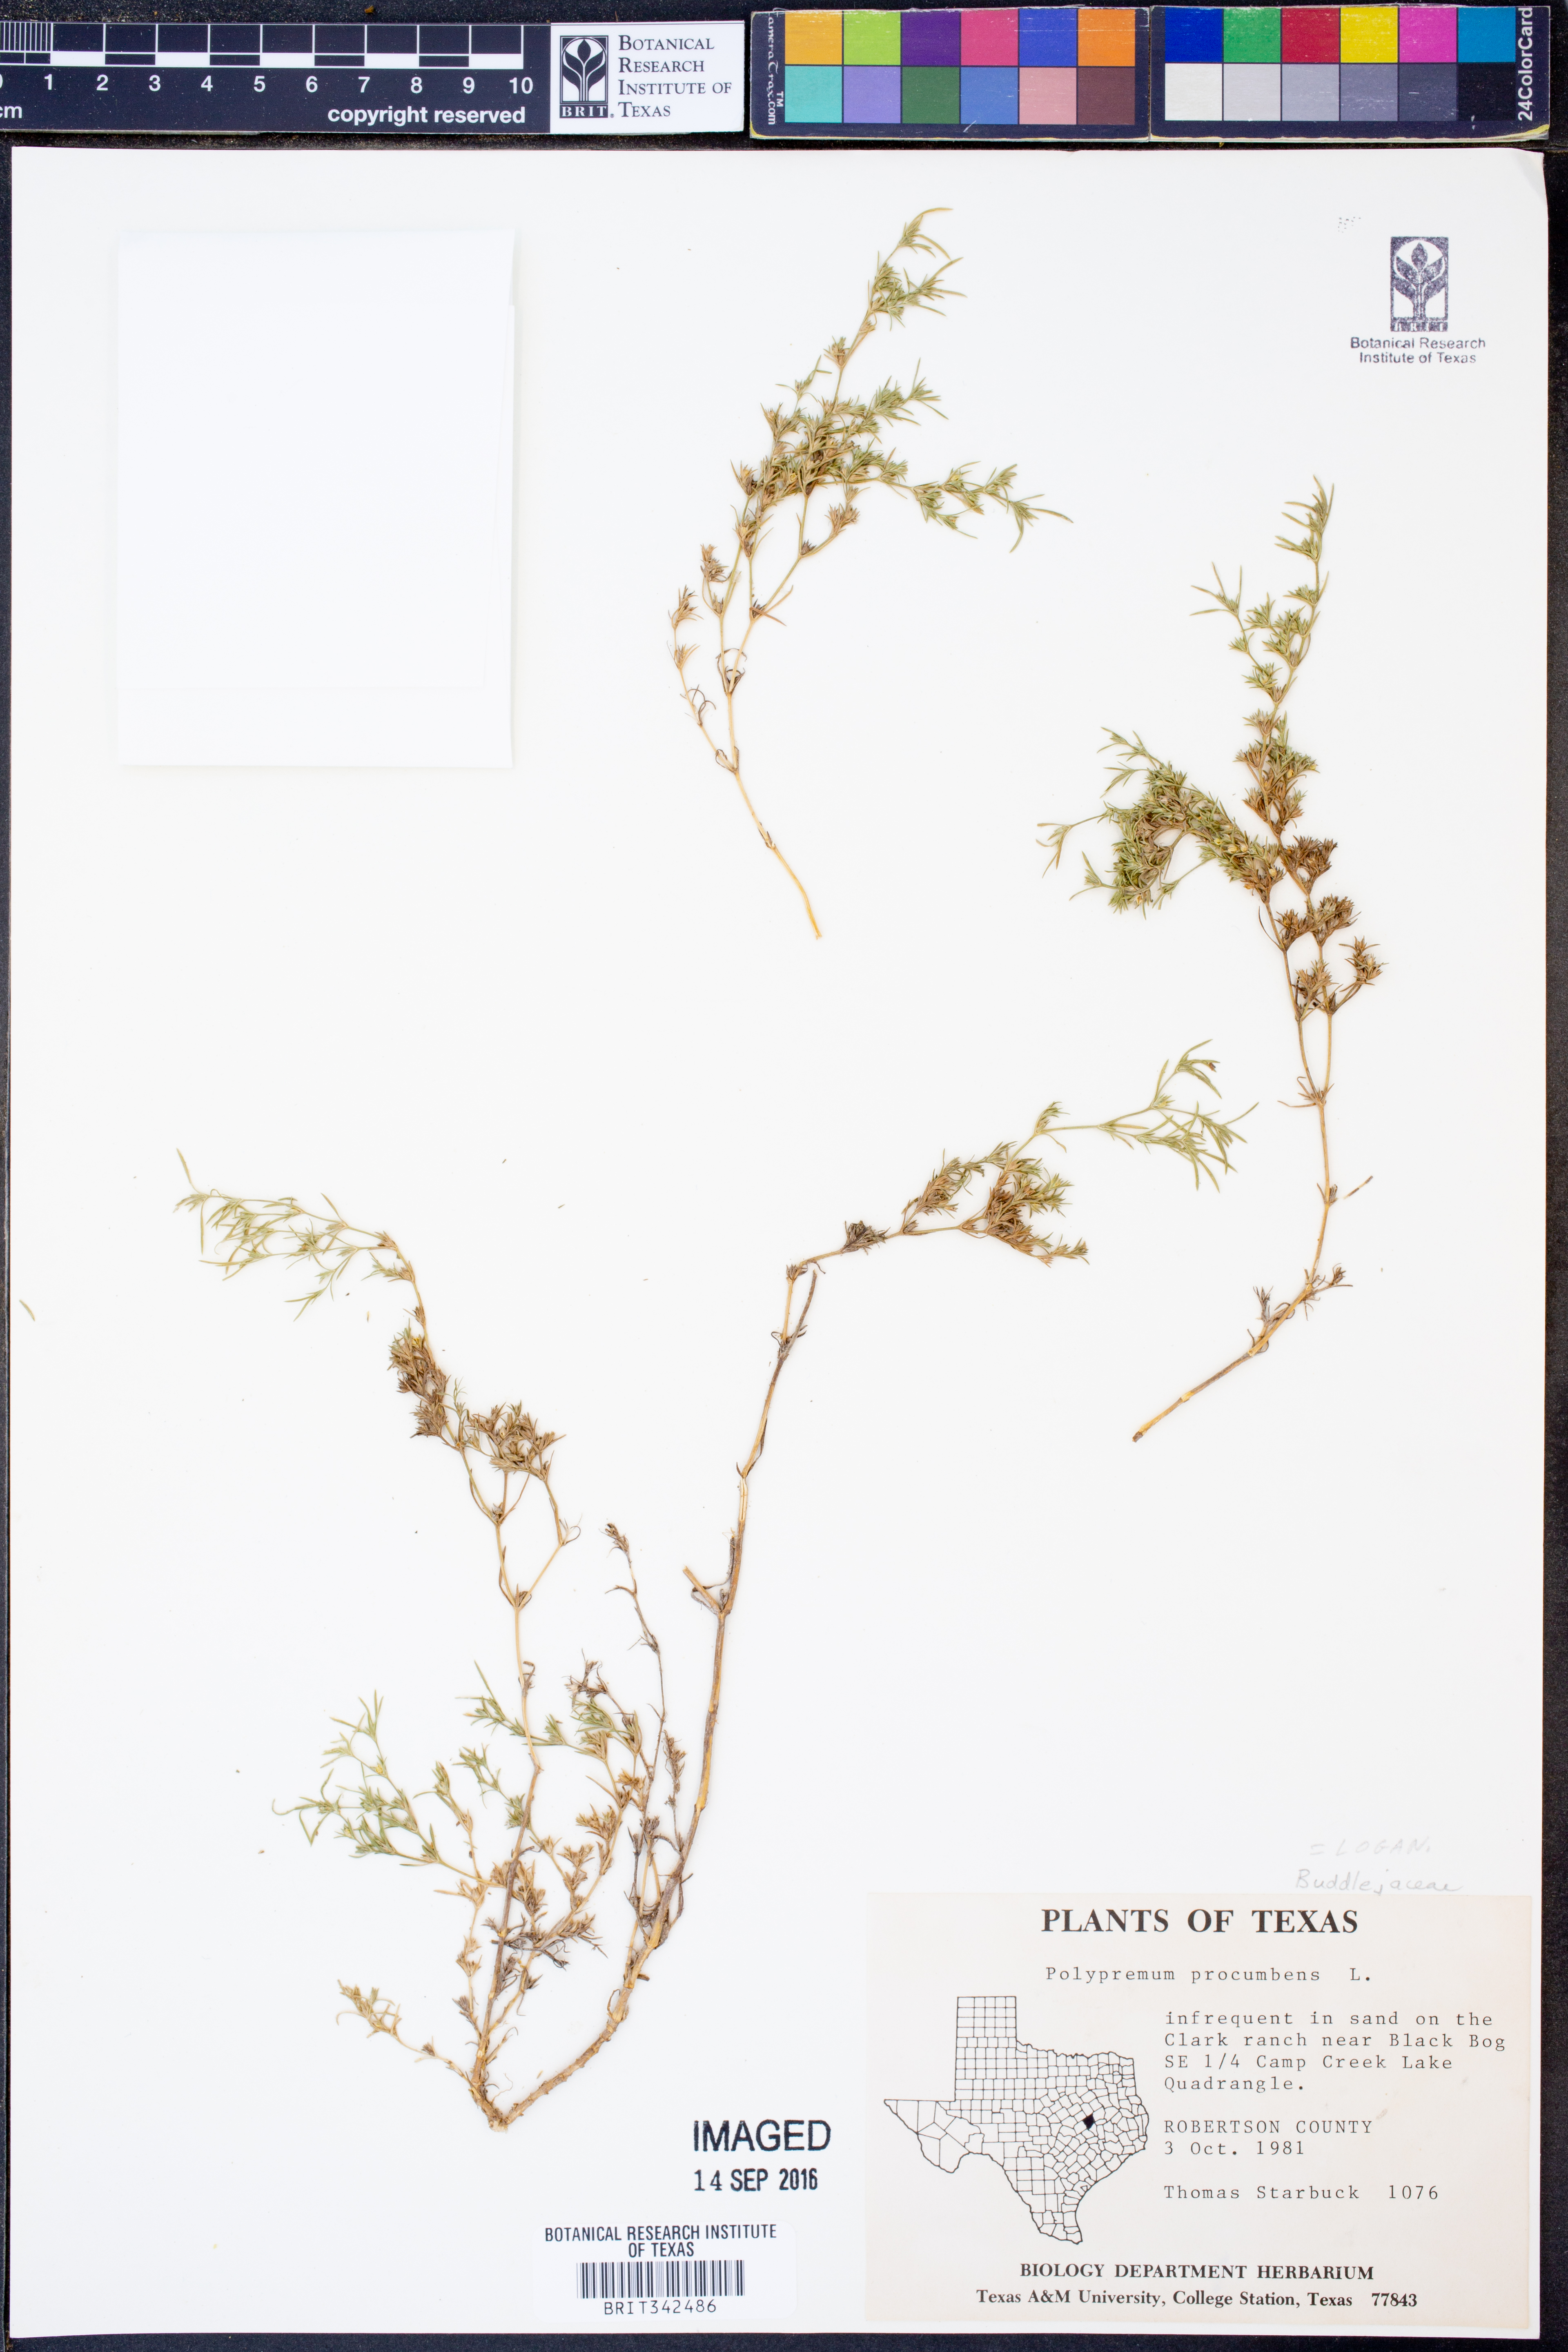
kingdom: Plantae
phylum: Tracheophyta
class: Magnoliopsida
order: Lamiales
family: Tetrachondraceae
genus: Polypremum
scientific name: Polypremum procumbens
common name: Juniper-leaf
